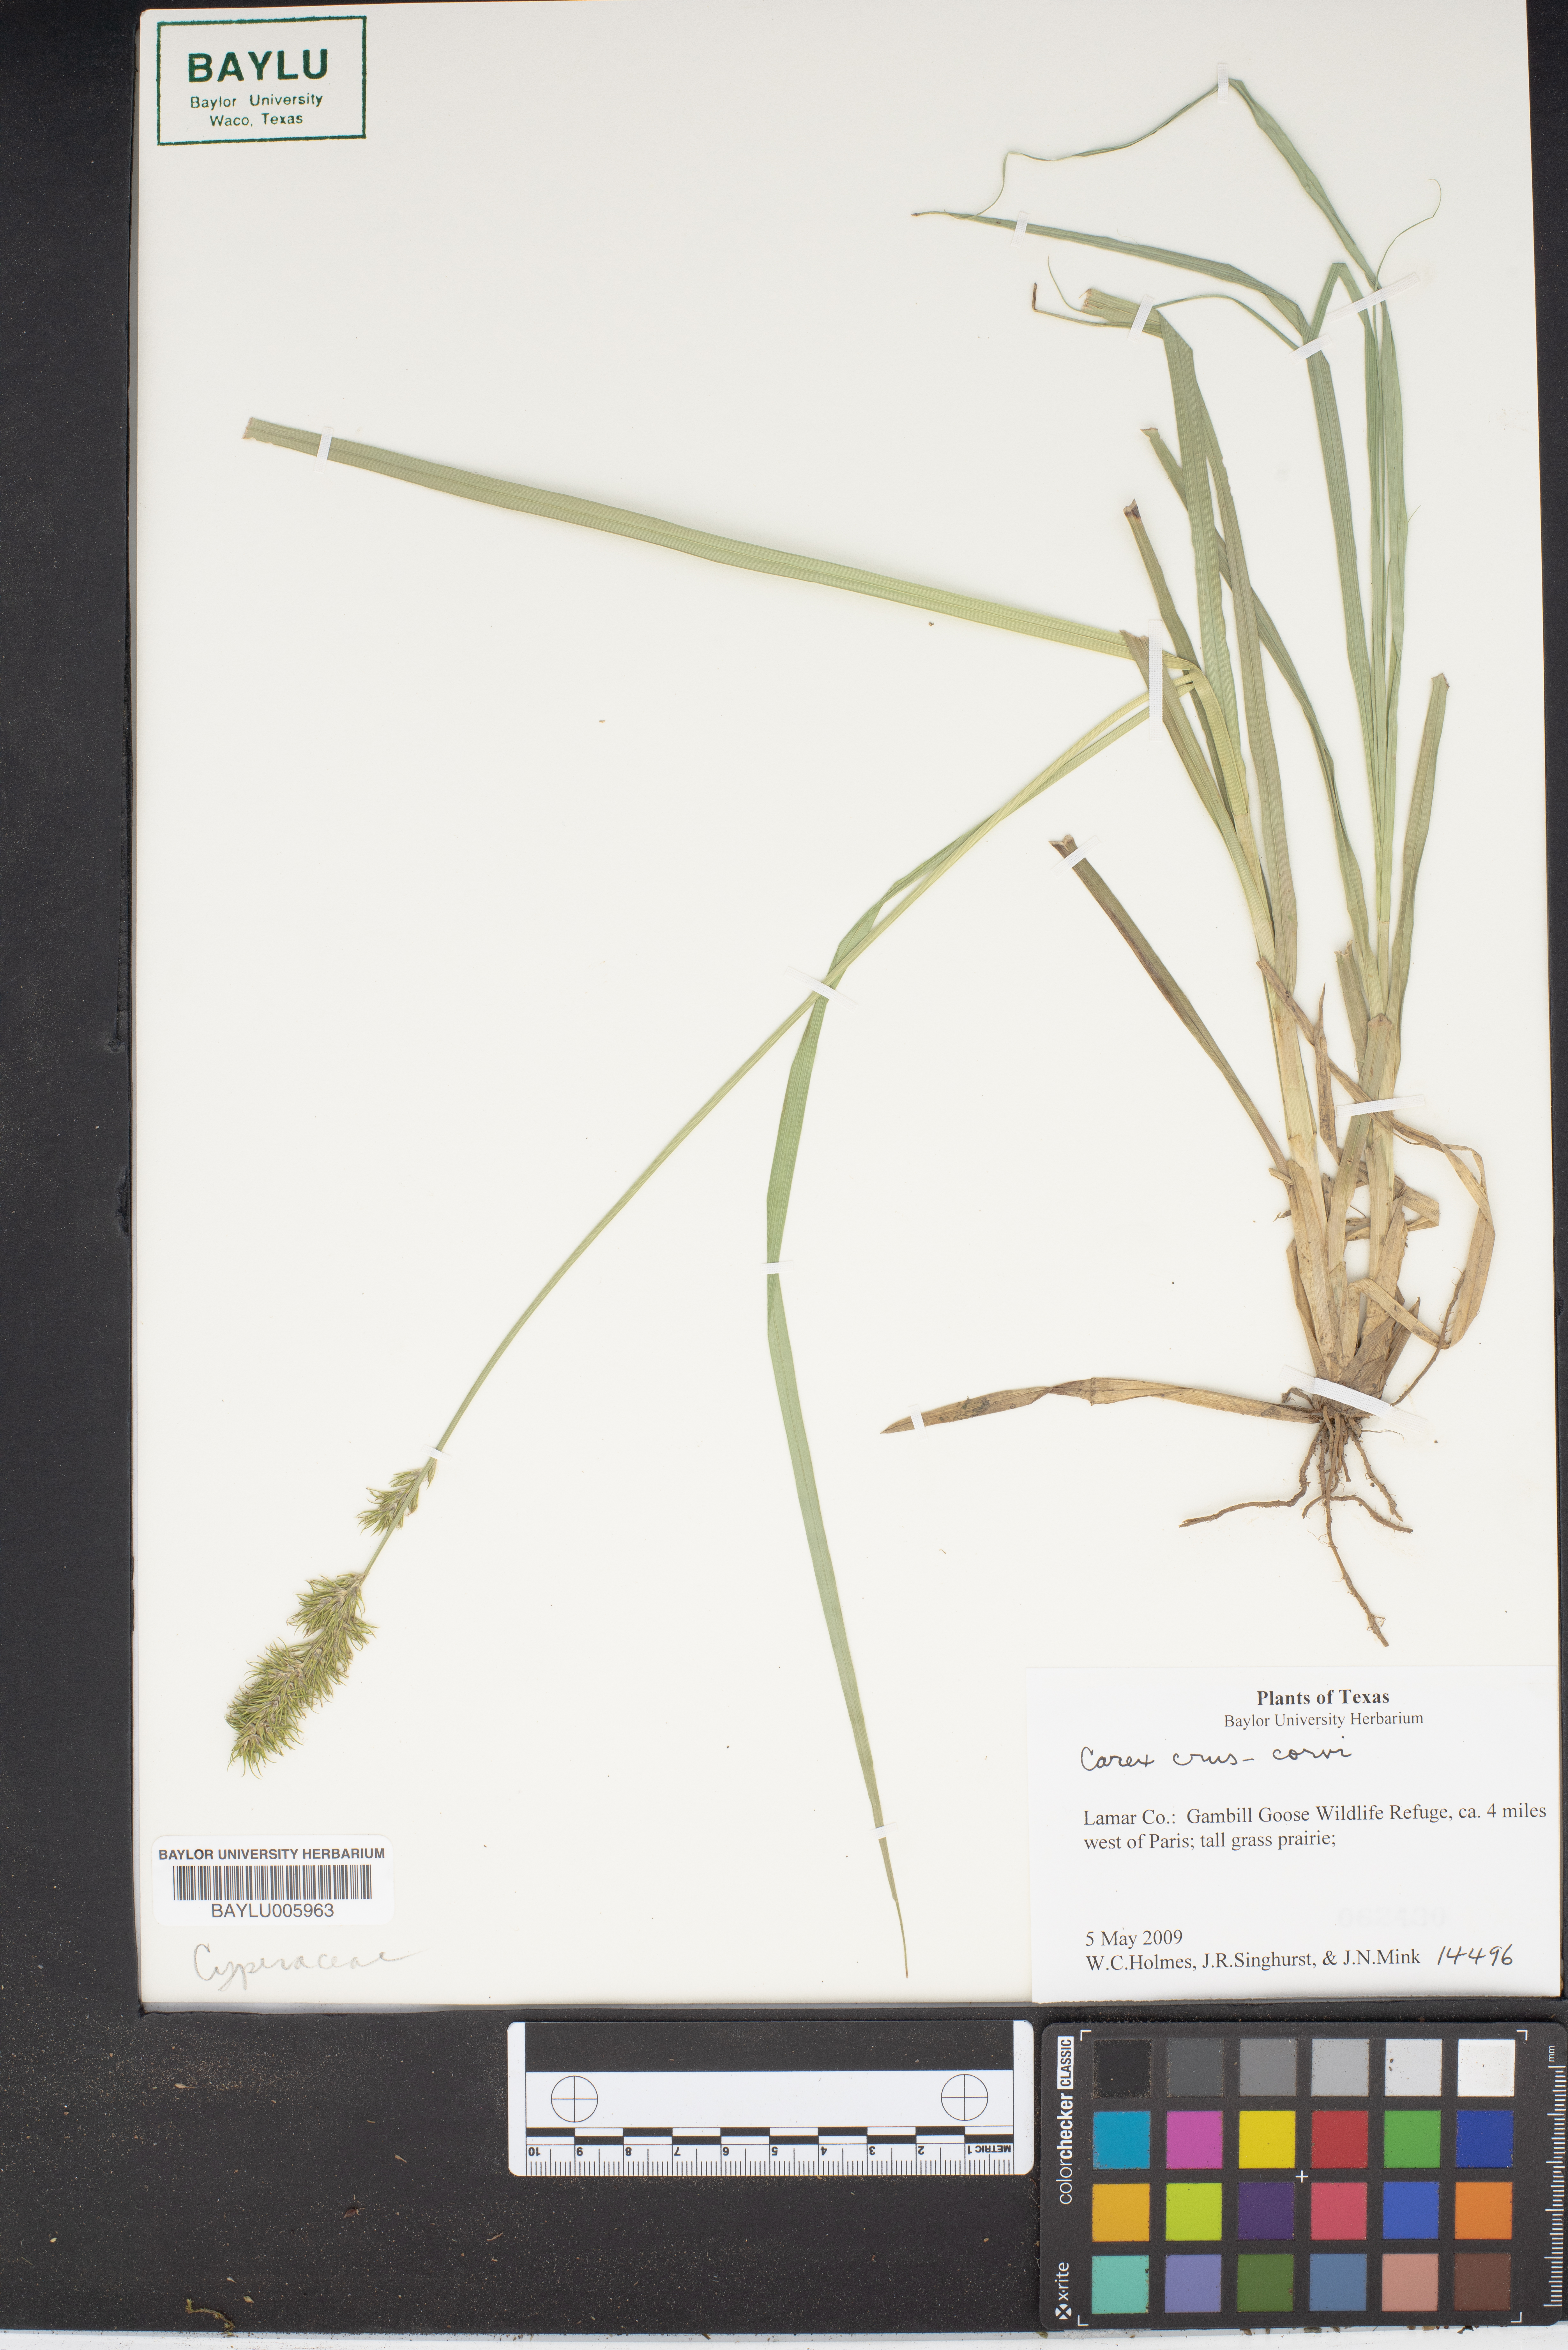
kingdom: Plantae
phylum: Tracheophyta
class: Liliopsida
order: Poales
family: Cyperaceae
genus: Carex
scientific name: Carex crus-corvi
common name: Crow-spur sedge
